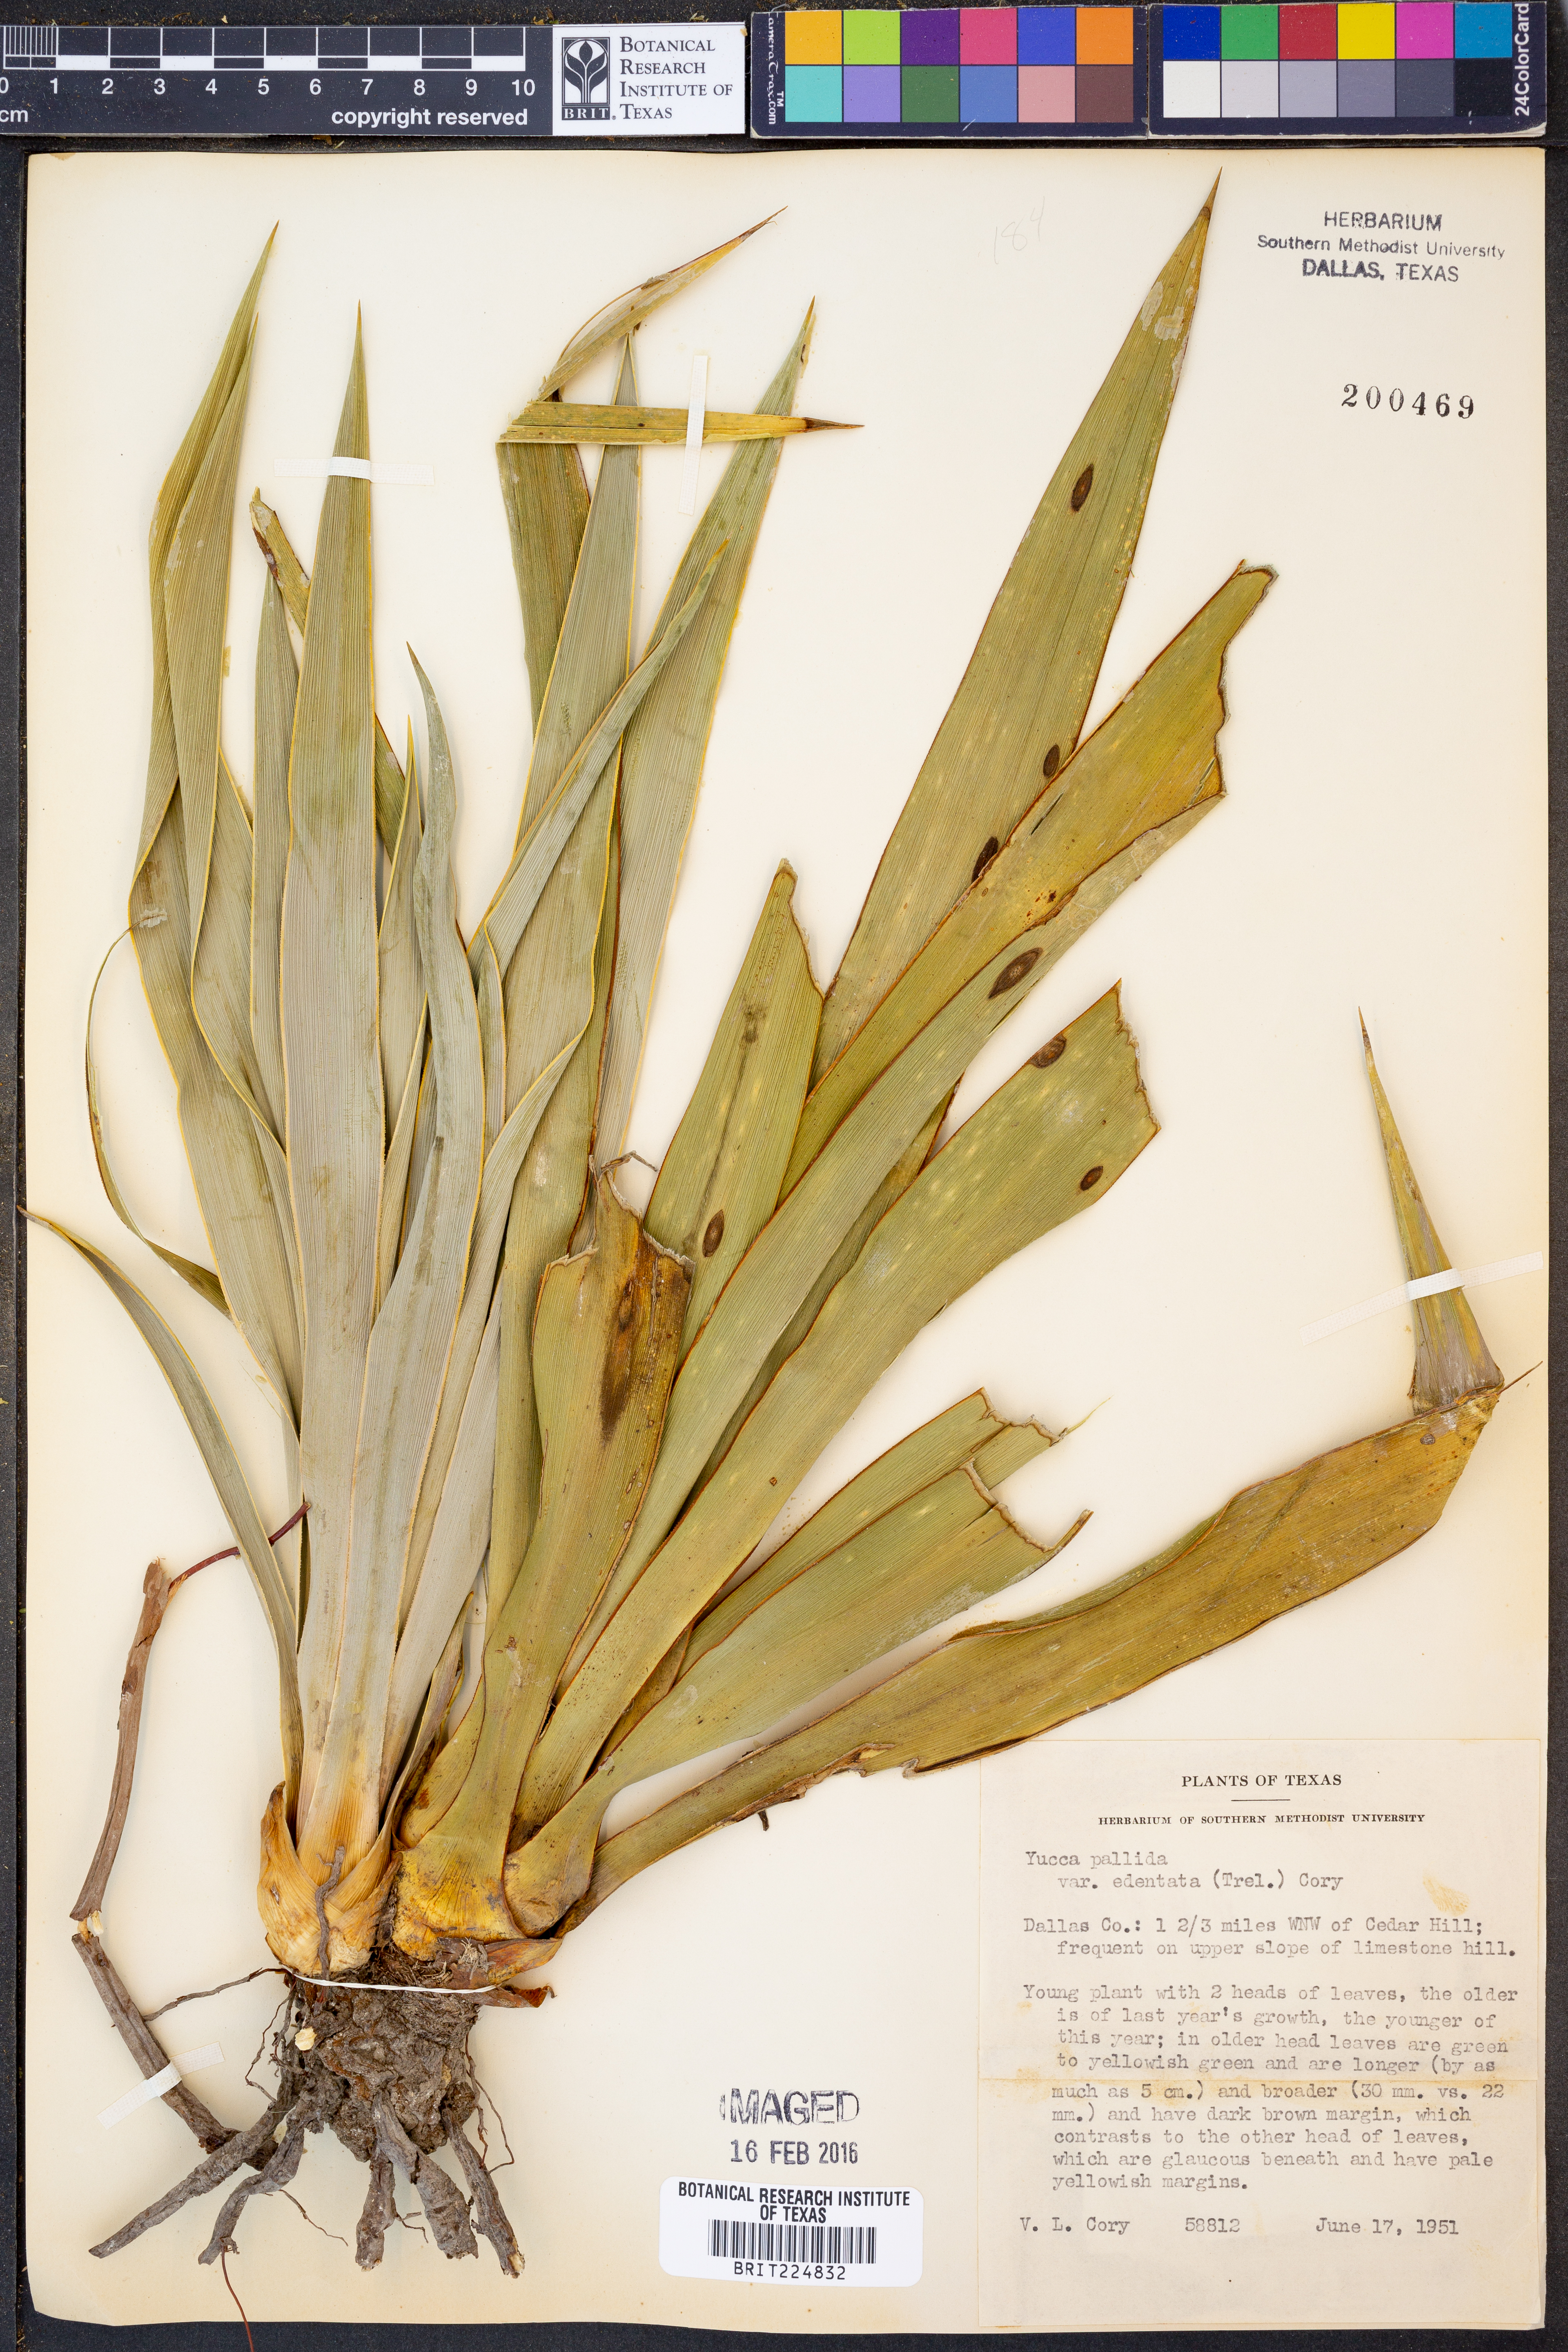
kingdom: Plantae
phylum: Tracheophyta
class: Liliopsida
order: Asparagales
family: Asparagaceae
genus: Yucca
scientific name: Yucca pallida
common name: Pale leaf yucca
